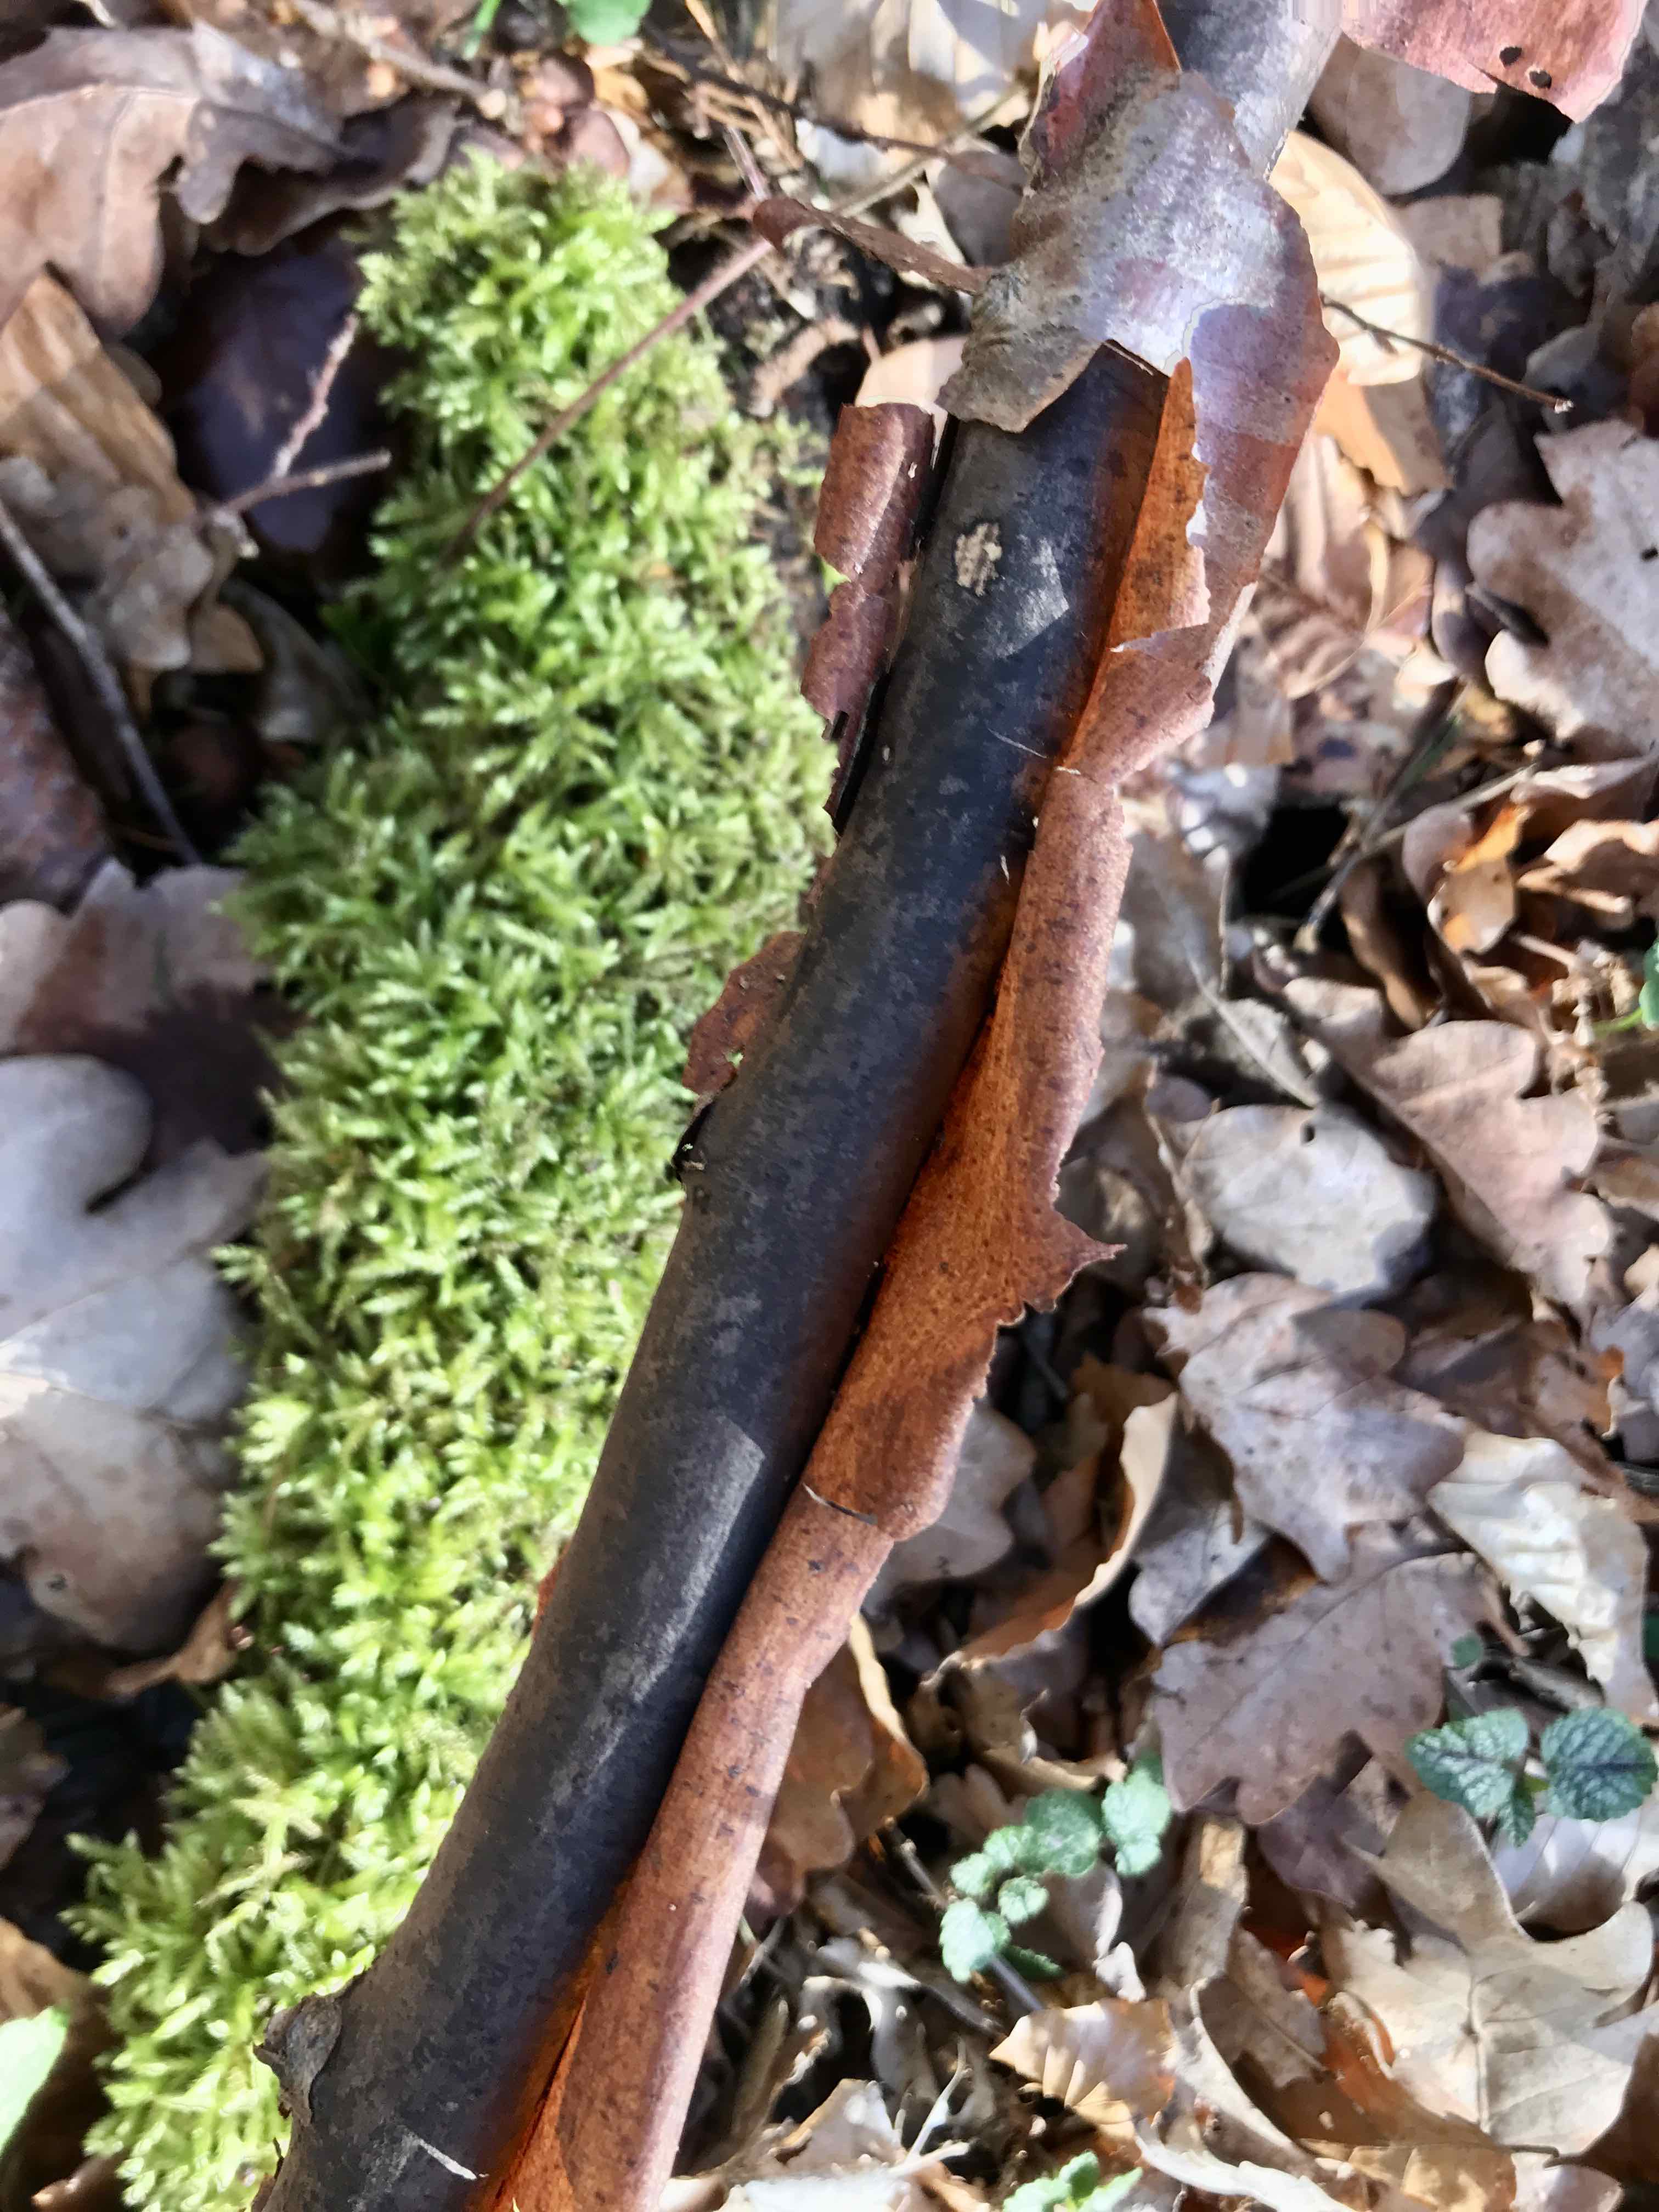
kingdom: Fungi
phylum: Ascomycota
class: Sordariomycetes
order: Xylariales
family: Diatrypaceae
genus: Diatrype
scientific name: Diatrype decorticata
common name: barksprænger-kulskorpe
